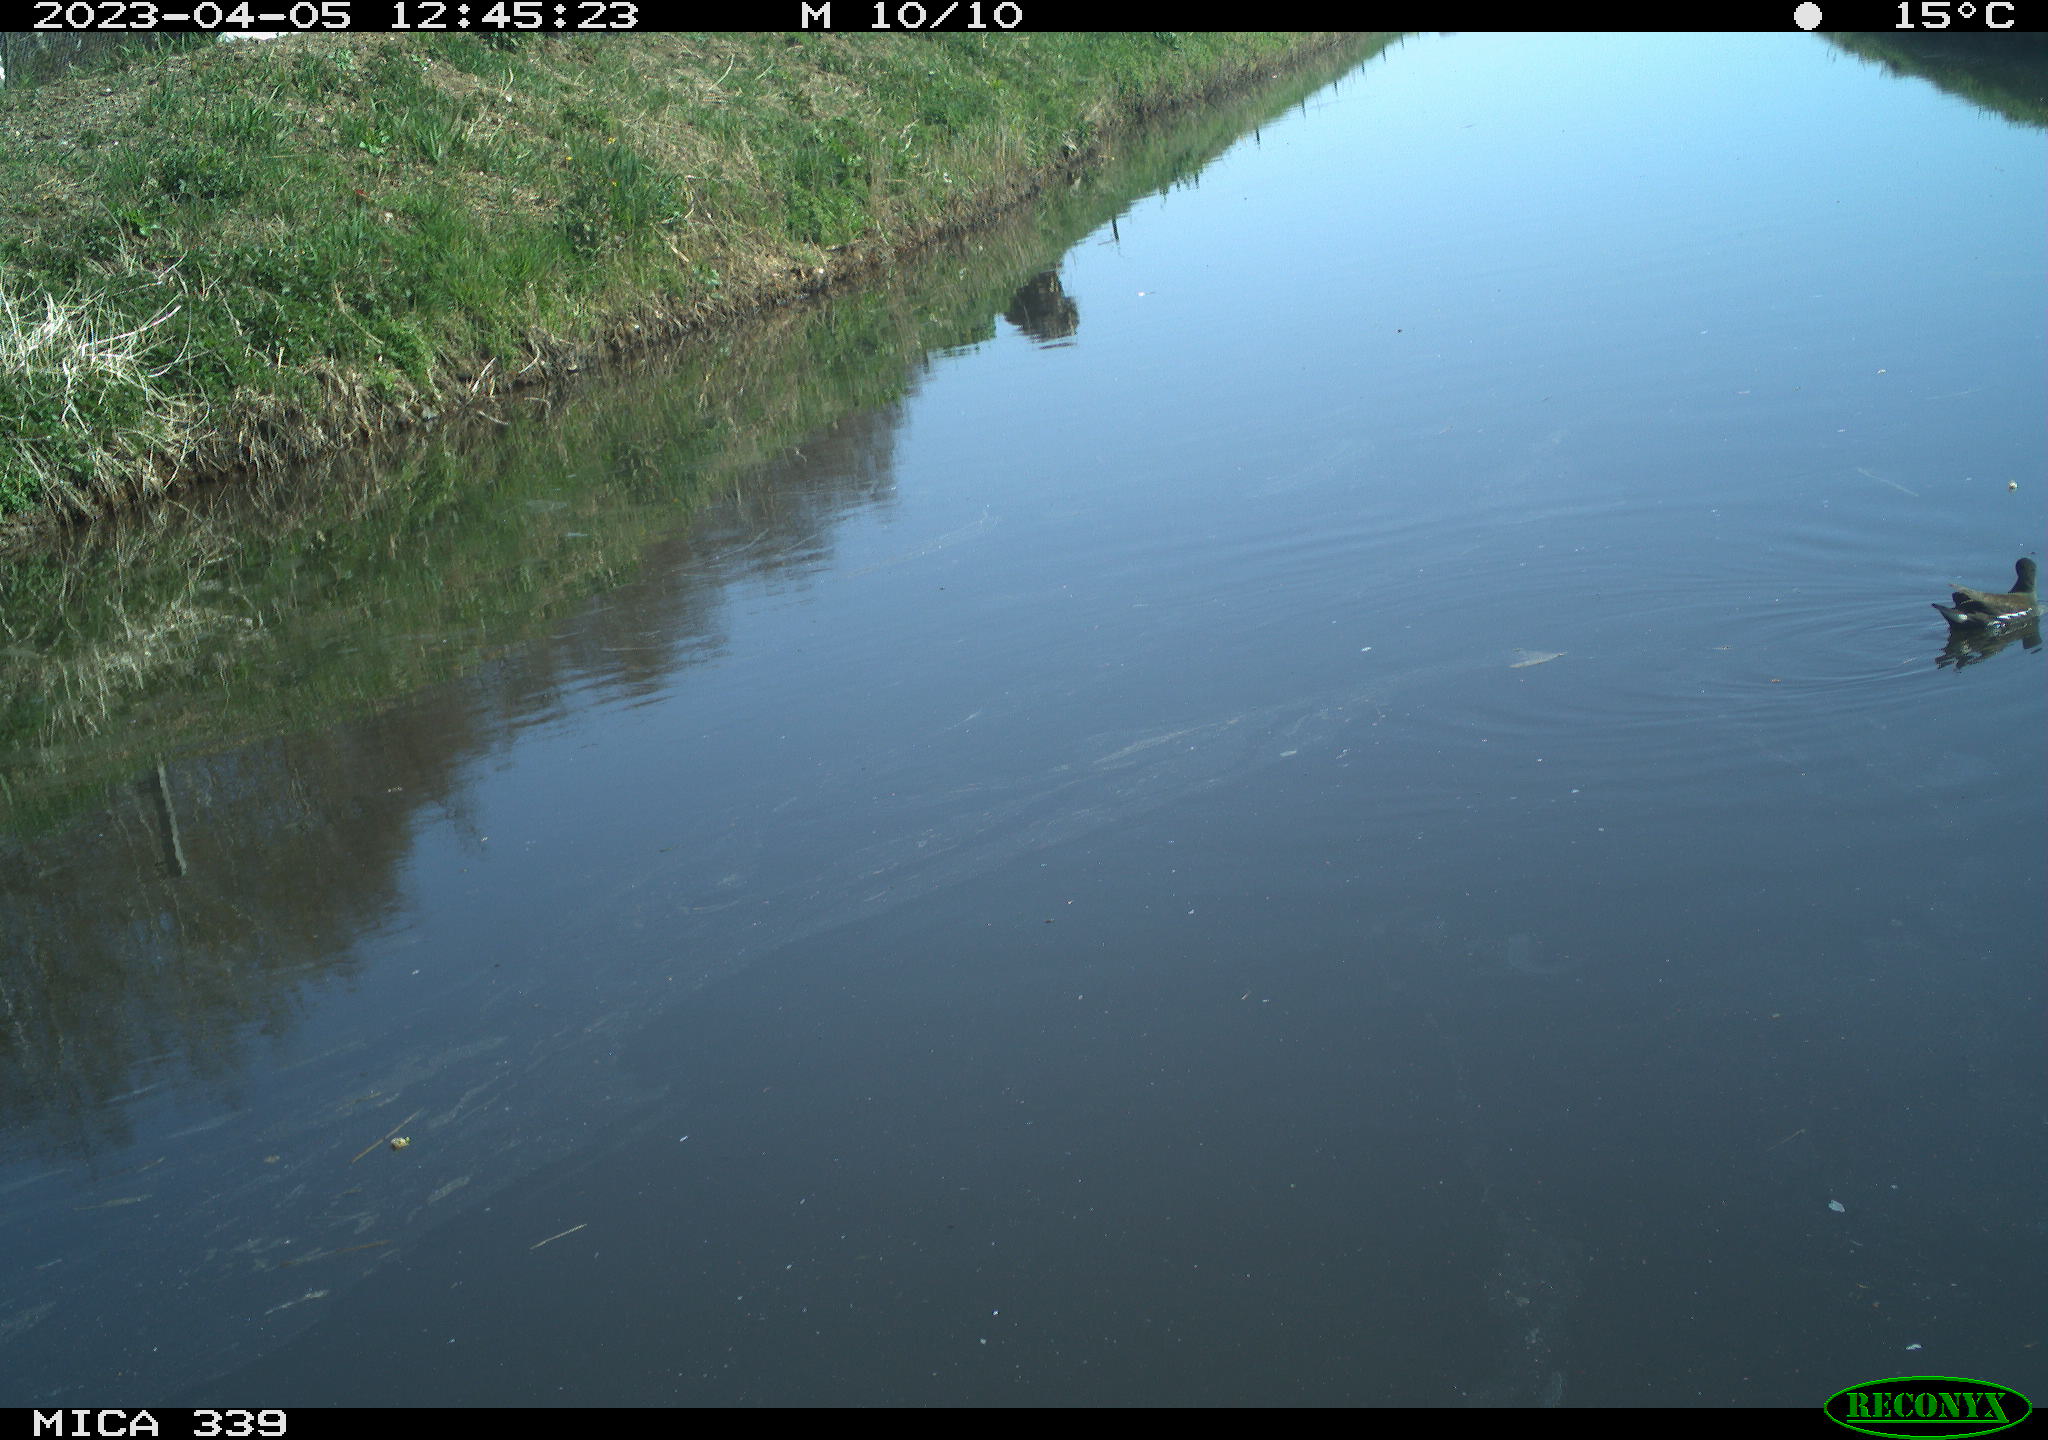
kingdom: Animalia
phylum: Chordata
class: Aves
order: Gruiformes
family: Rallidae
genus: Gallinula
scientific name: Gallinula chloropus
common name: Common moorhen
